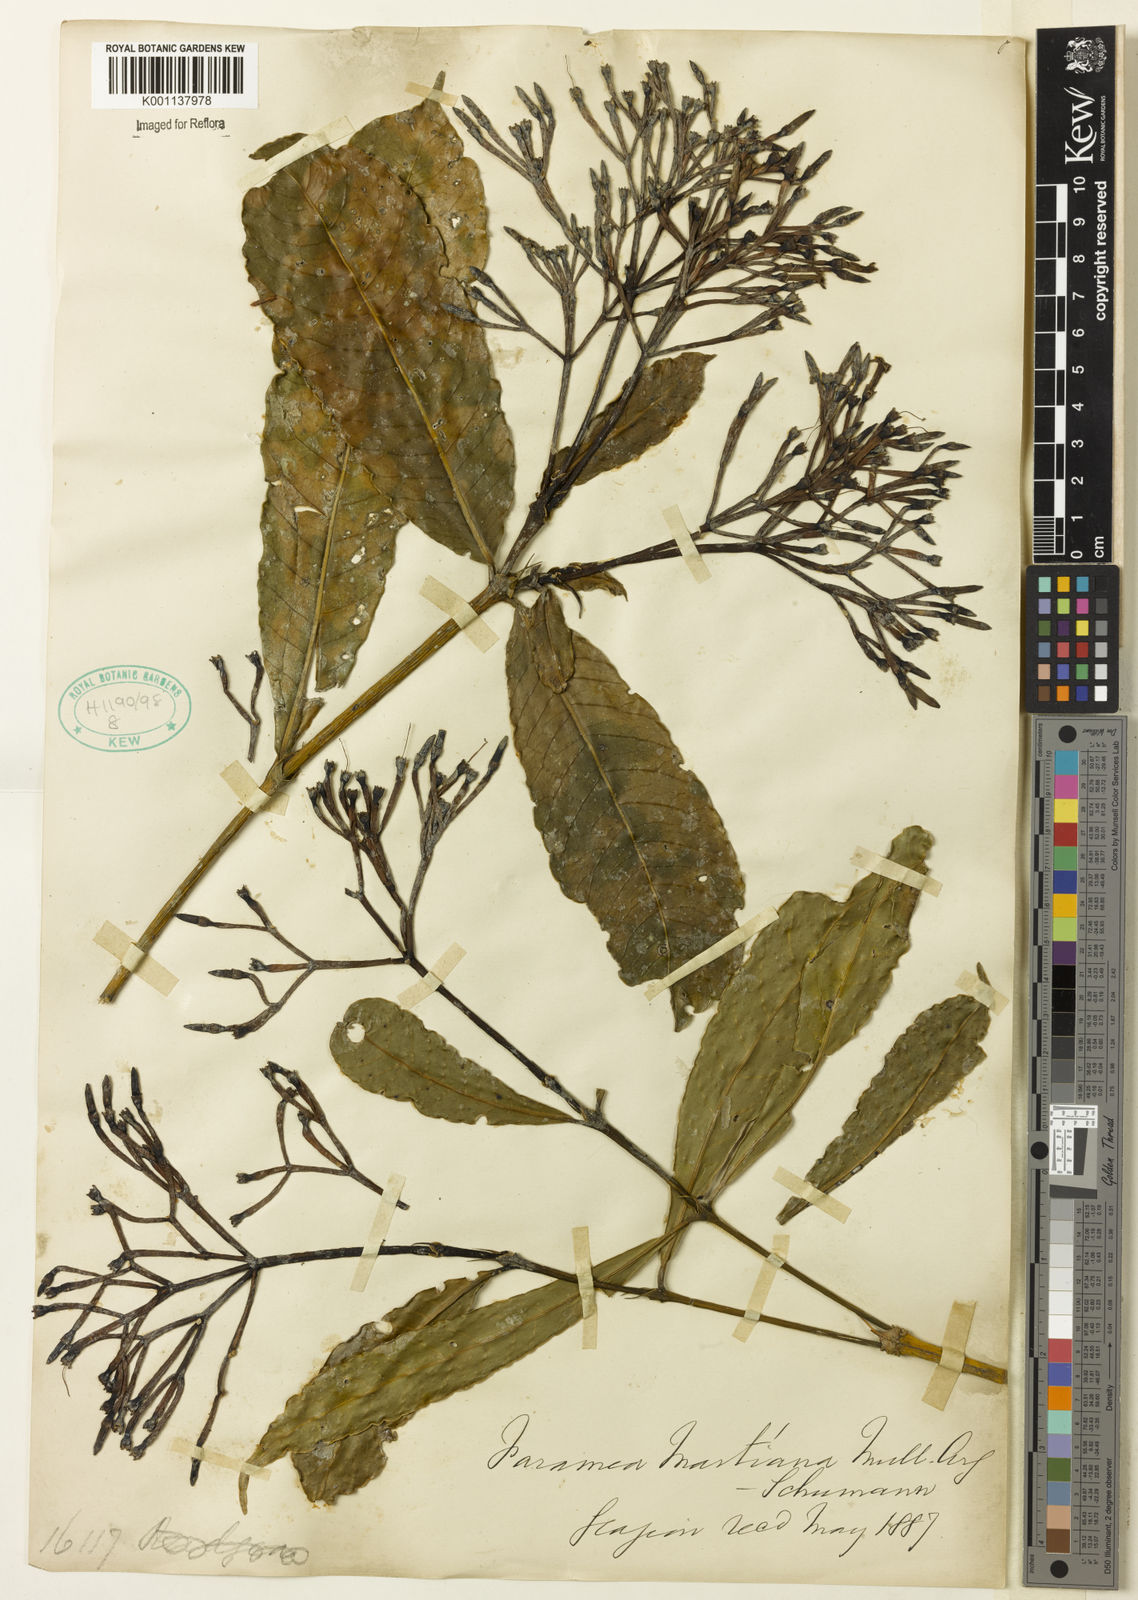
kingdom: Plantae
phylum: Tracheophyta
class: Magnoliopsida
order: Gentianales
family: Rubiaceae
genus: Faramea
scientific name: Faramea
